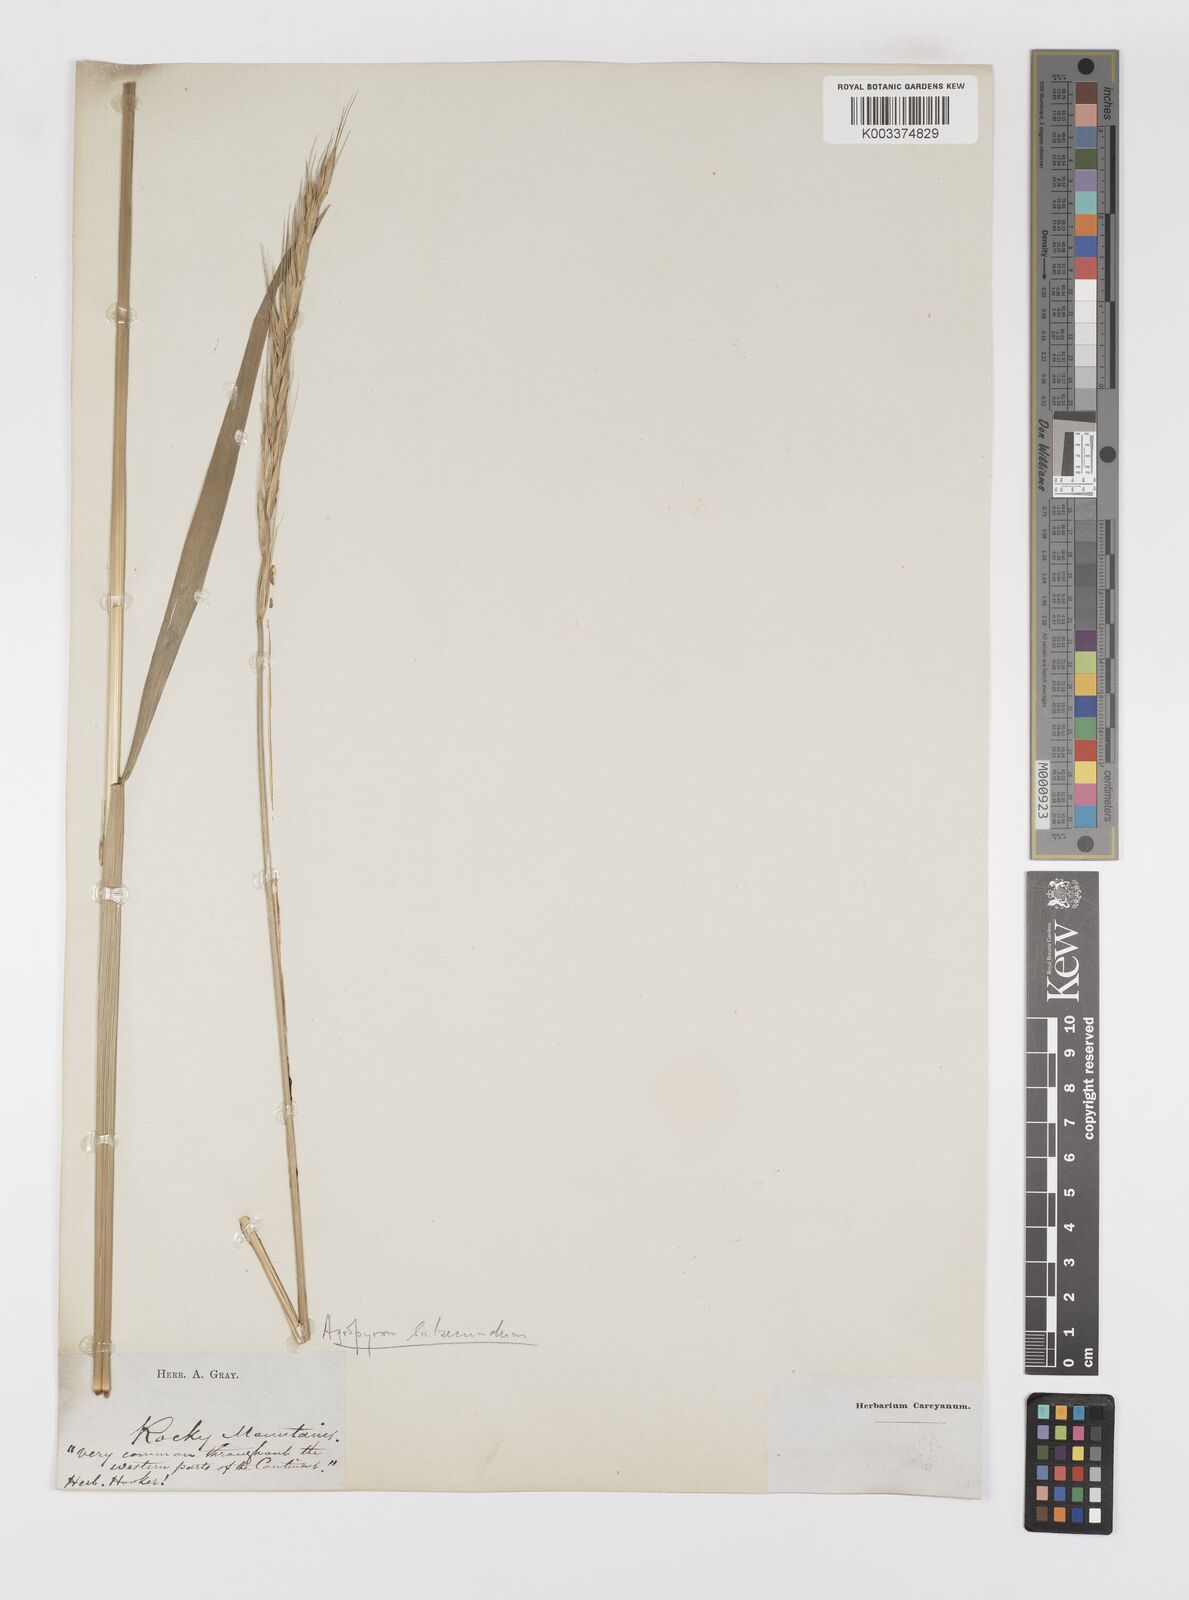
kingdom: Plantae
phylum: Tracheophyta
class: Liliopsida
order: Poales
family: Poaceae
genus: Elymus
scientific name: Elymus violaceus
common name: Arctic wheatgrass
